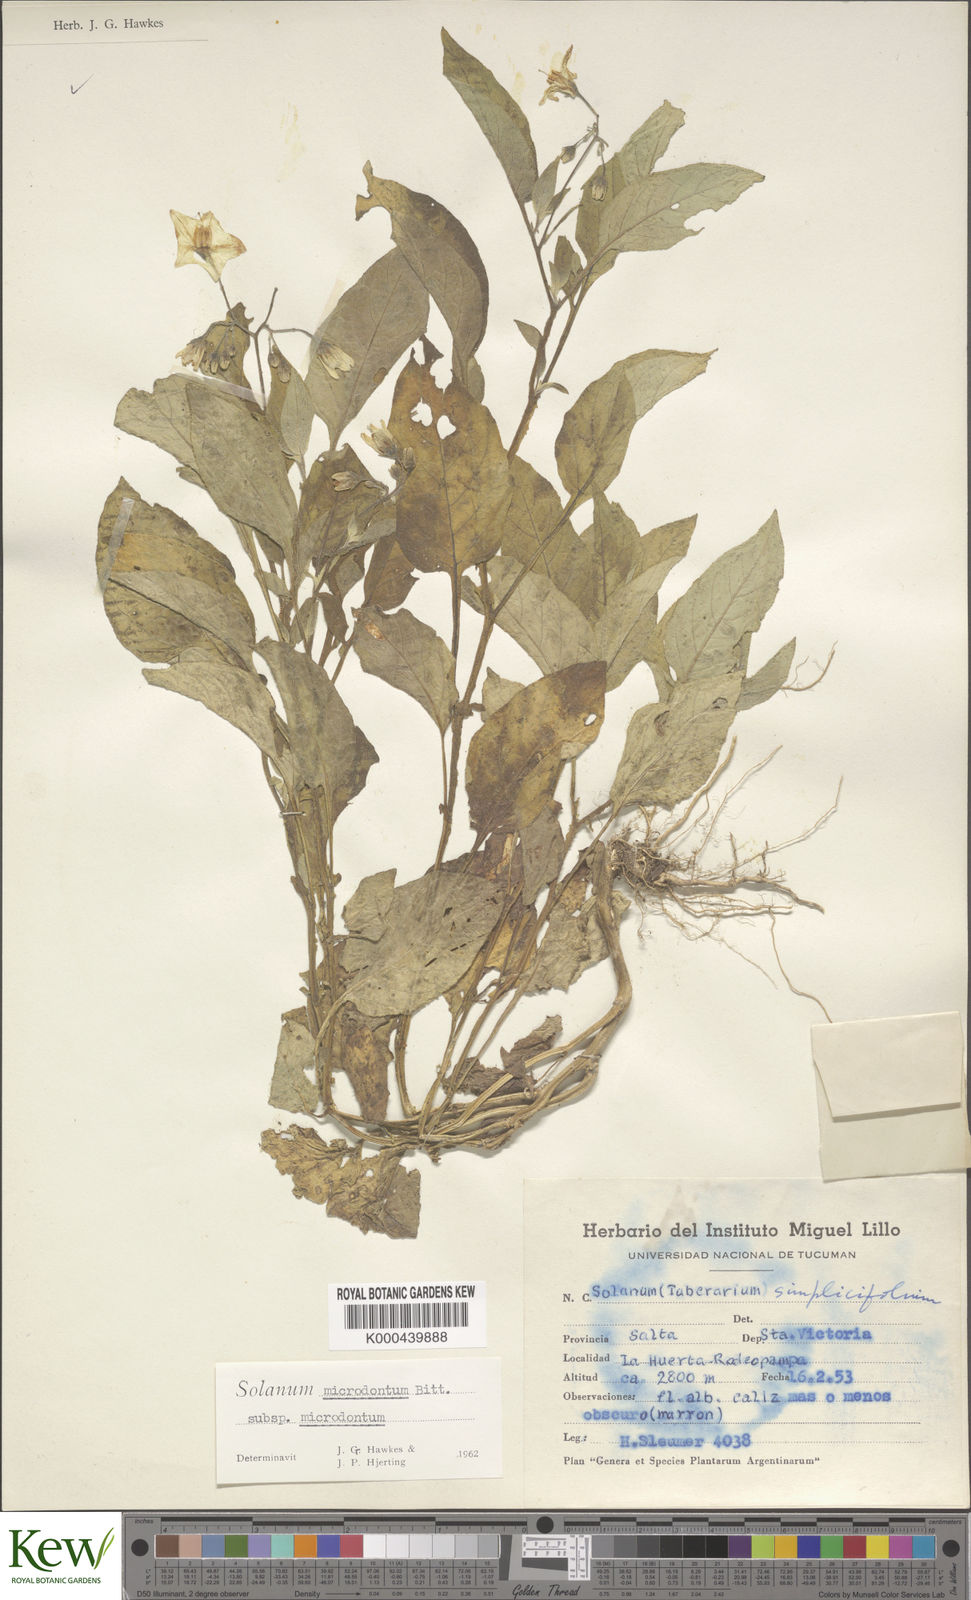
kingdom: Plantae
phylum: Tracheophyta
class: Magnoliopsida
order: Solanales
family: Solanaceae
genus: Solanum
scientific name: Solanum microdontum
